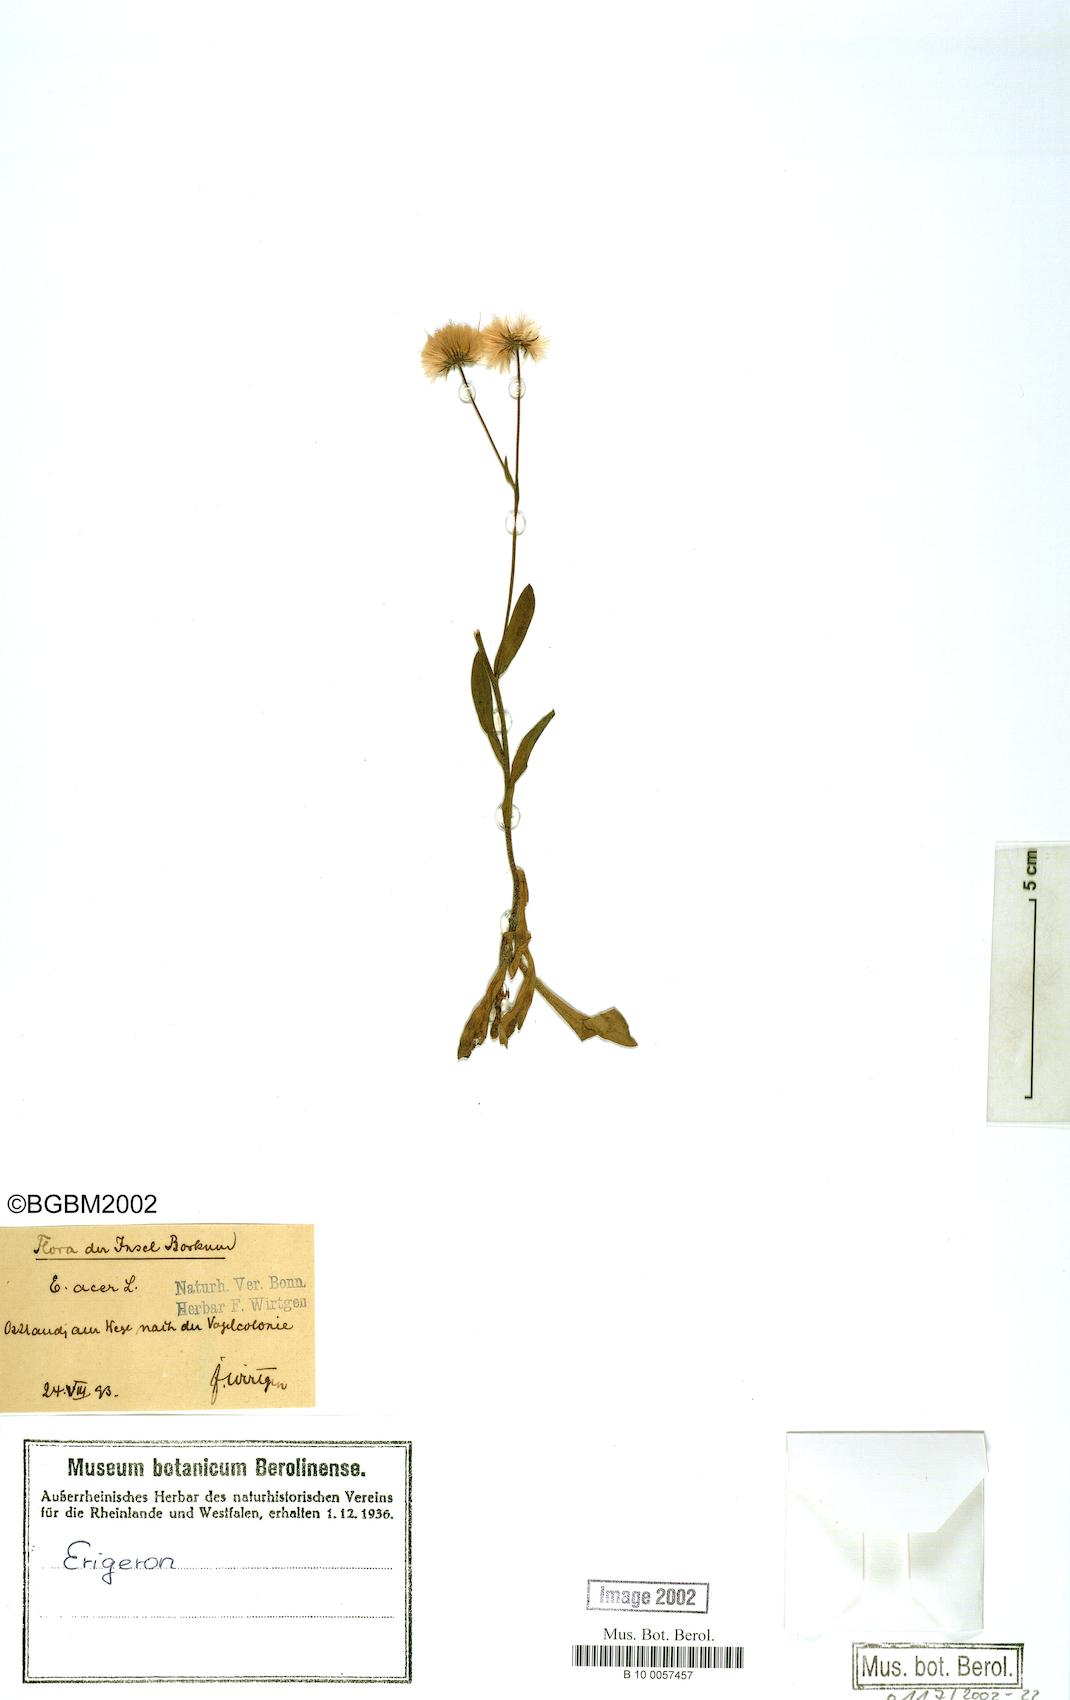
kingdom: Plantae
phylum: Tracheophyta
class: Magnoliopsida
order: Asterales
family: Asteraceae
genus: Erigeron
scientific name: Erigeron acris
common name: Blue fleabane
